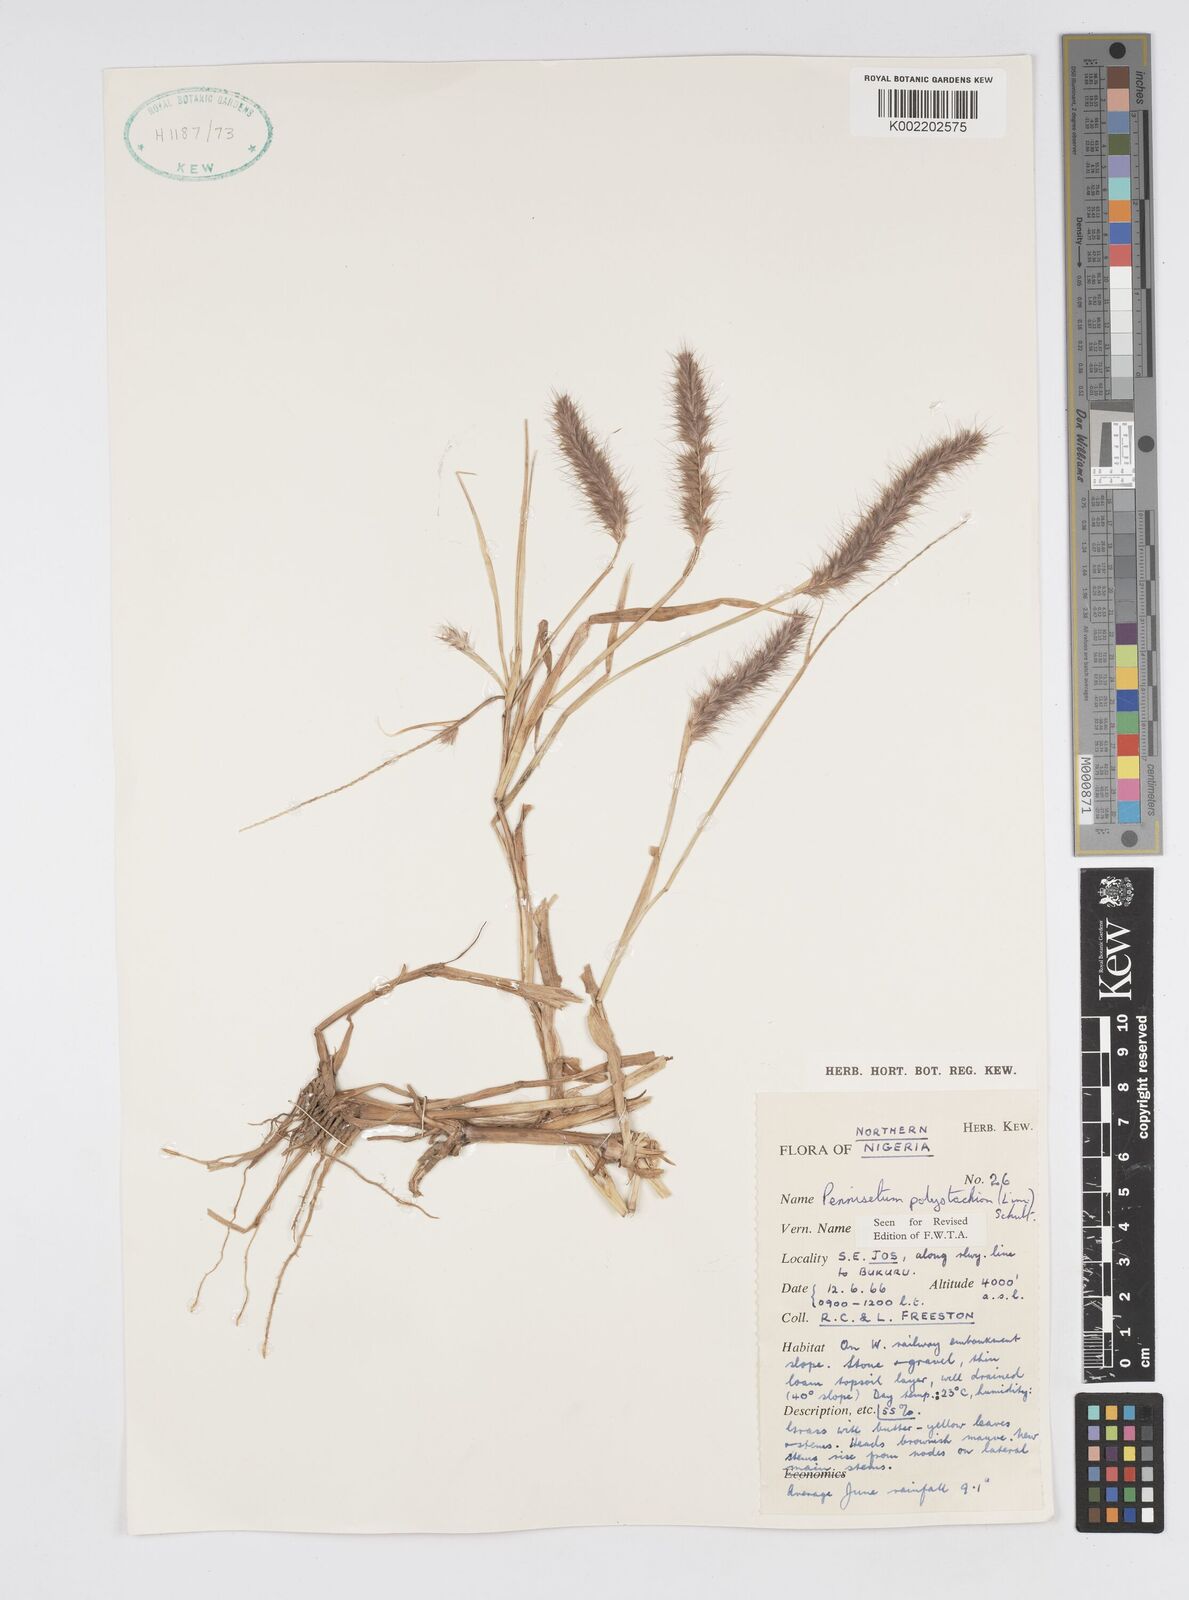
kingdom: Plantae
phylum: Tracheophyta
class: Liliopsida
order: Poales
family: Poaceae
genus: Setaria
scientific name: Setaria parviflora
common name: Knotroot bristle-grass
